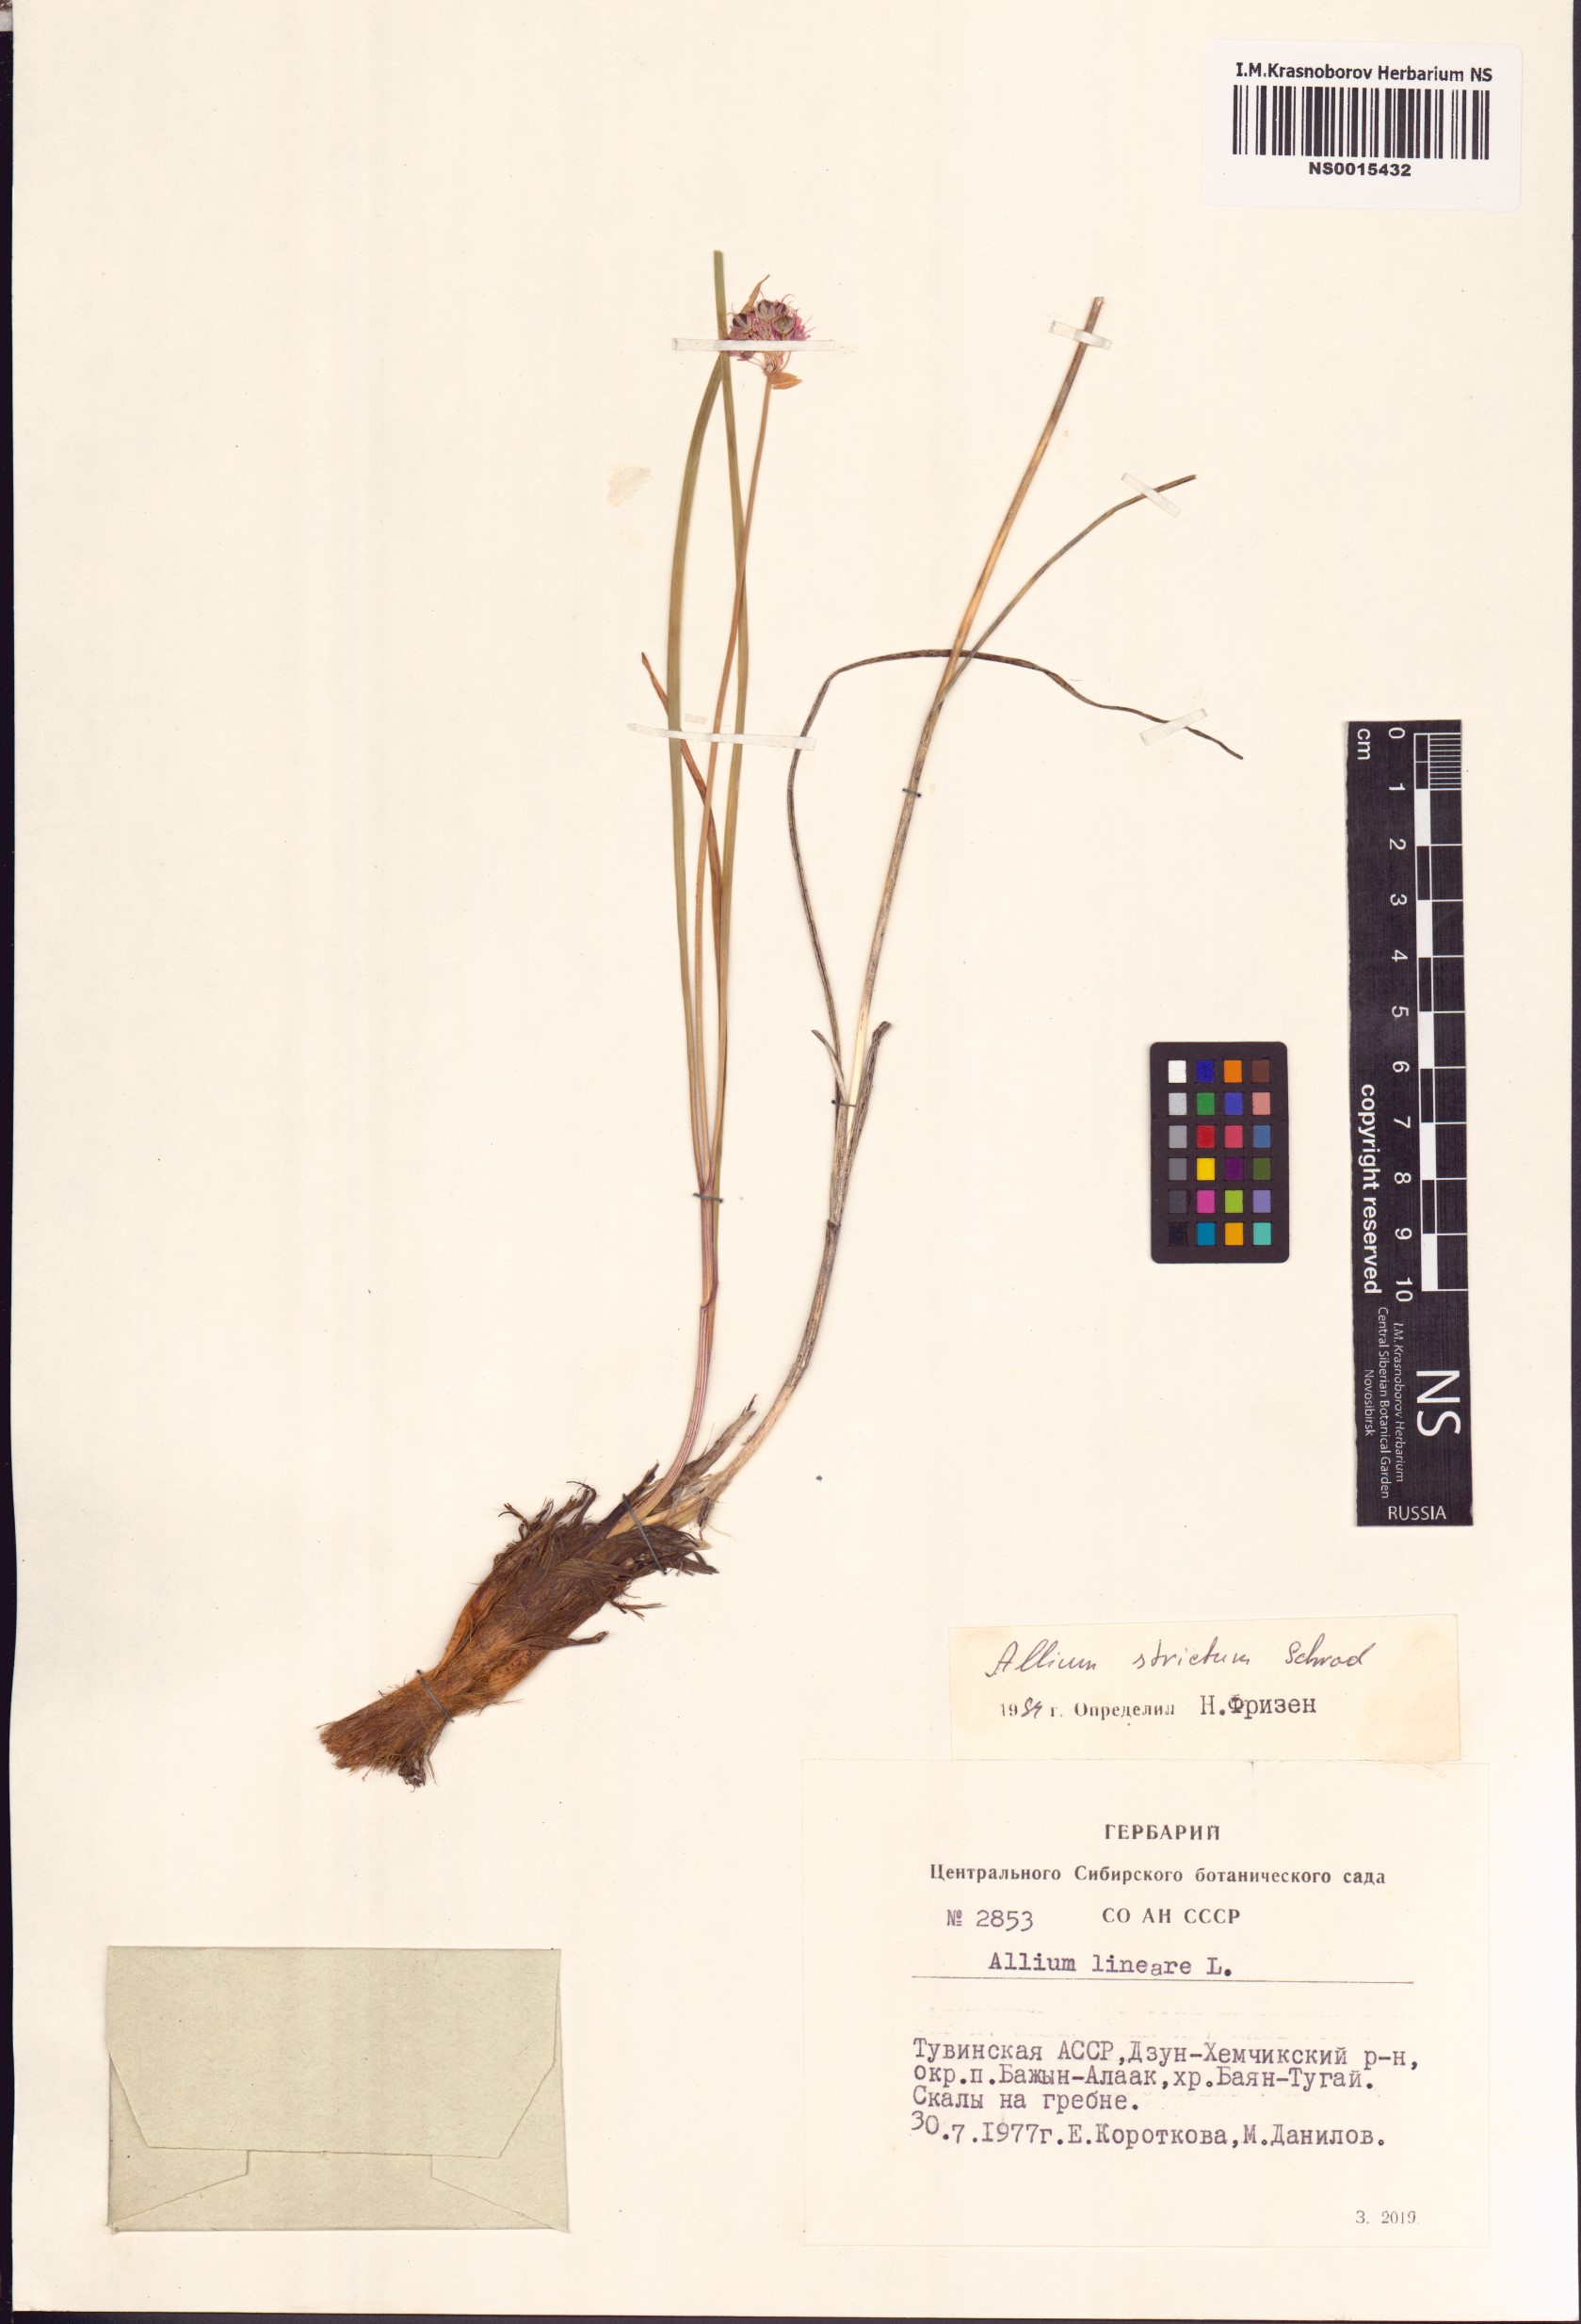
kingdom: Plantae
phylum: Tracheophyta
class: Liliopsida
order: Asparagales
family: Amaryllidaceae
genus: Allium
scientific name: Allium strictum
